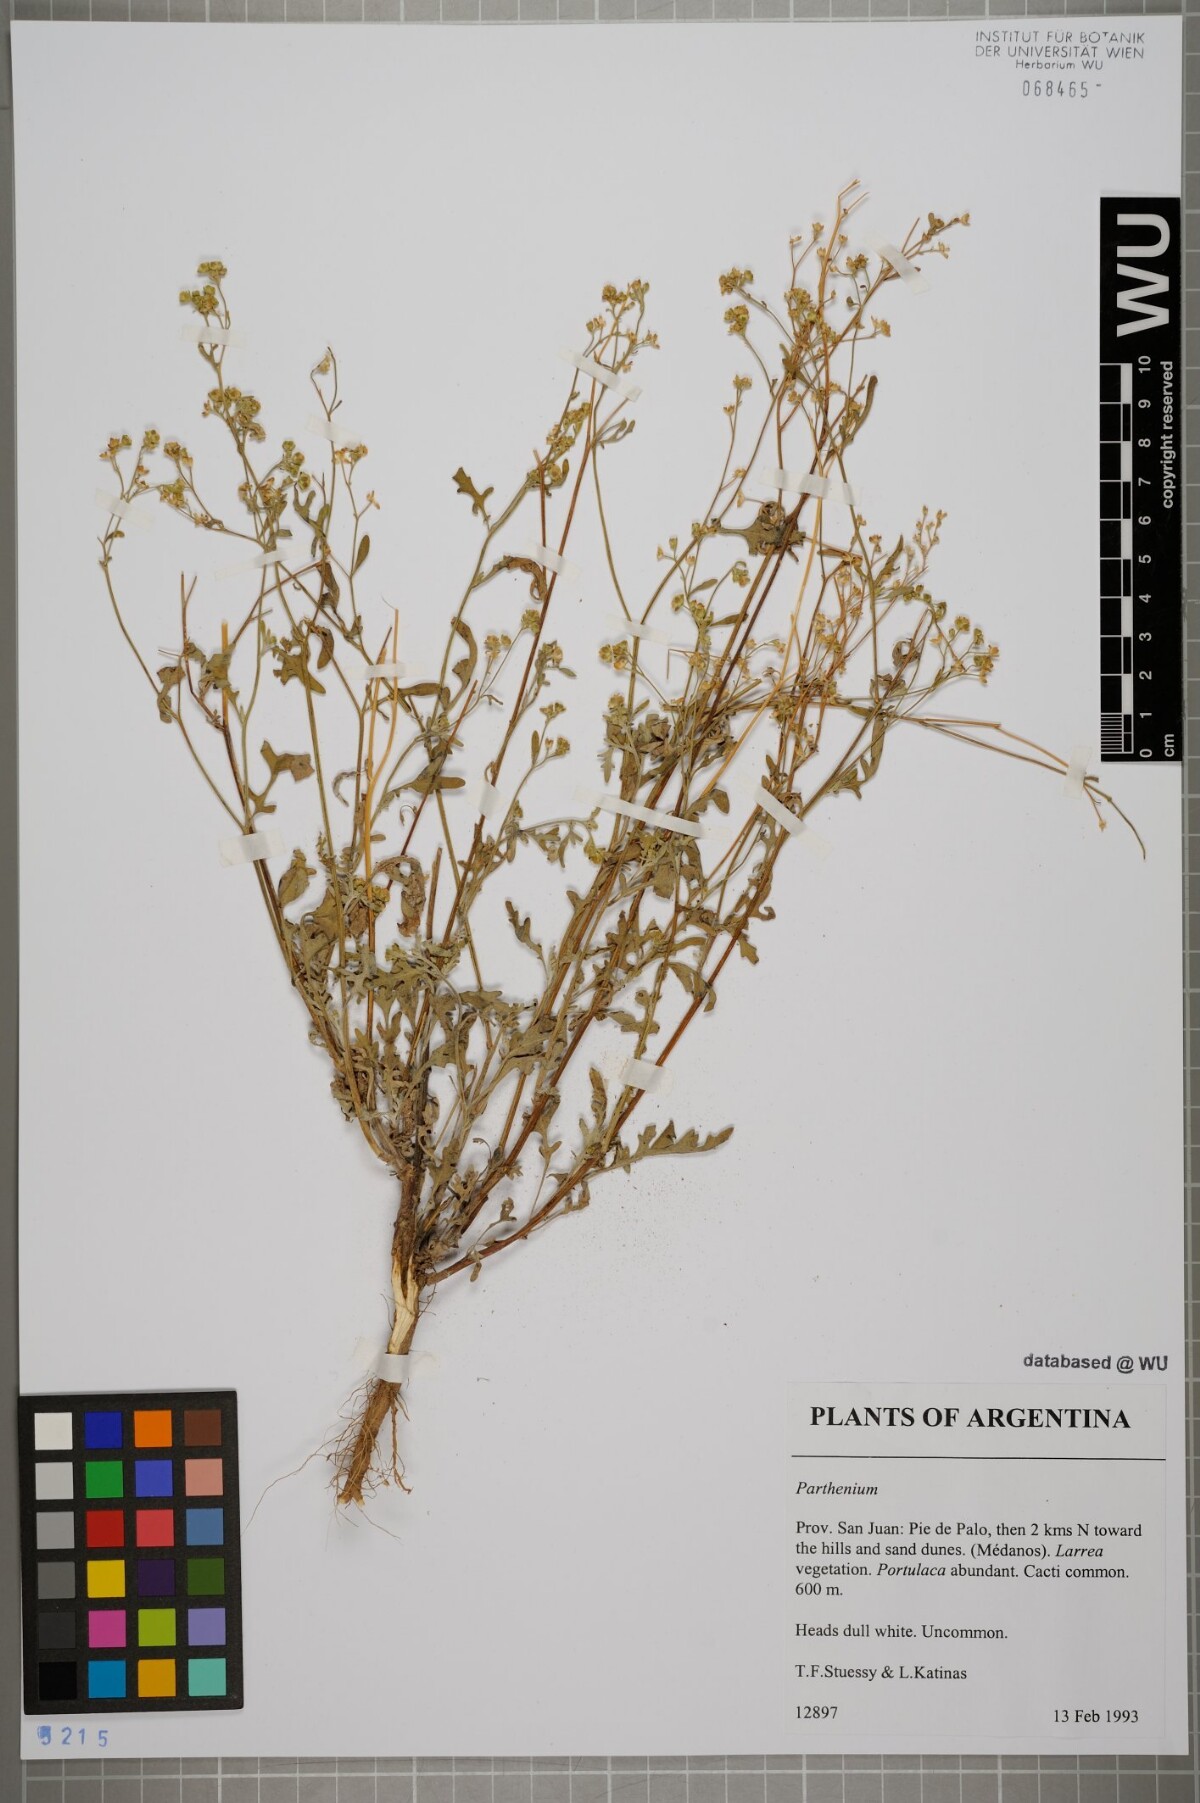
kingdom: Plantae
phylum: Tracheophyta
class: Magnoliopsida
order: Asterales
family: Asteraceae
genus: Parthenium
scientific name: Parthenium
